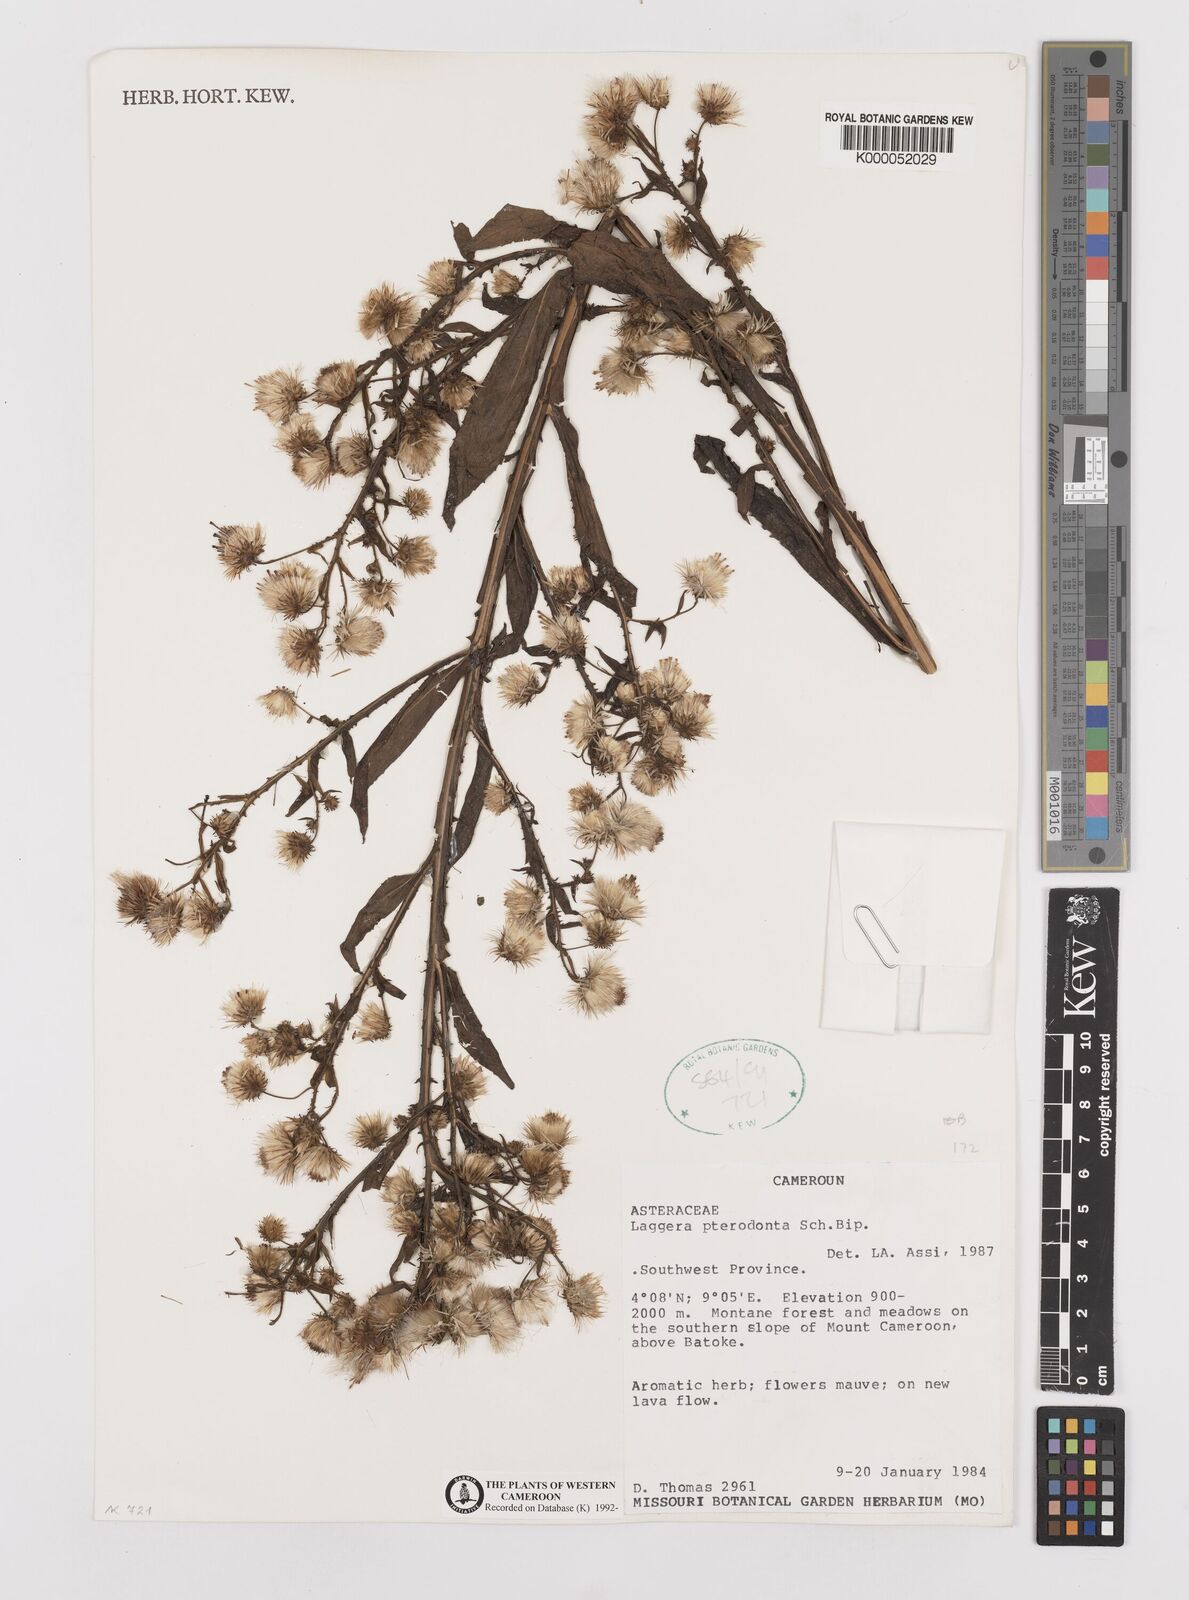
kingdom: Plantae
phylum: Tracheophyta
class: Magnoliopsida
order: Asterales
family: Asteraceae
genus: Laggera
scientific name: Laggera crispata
